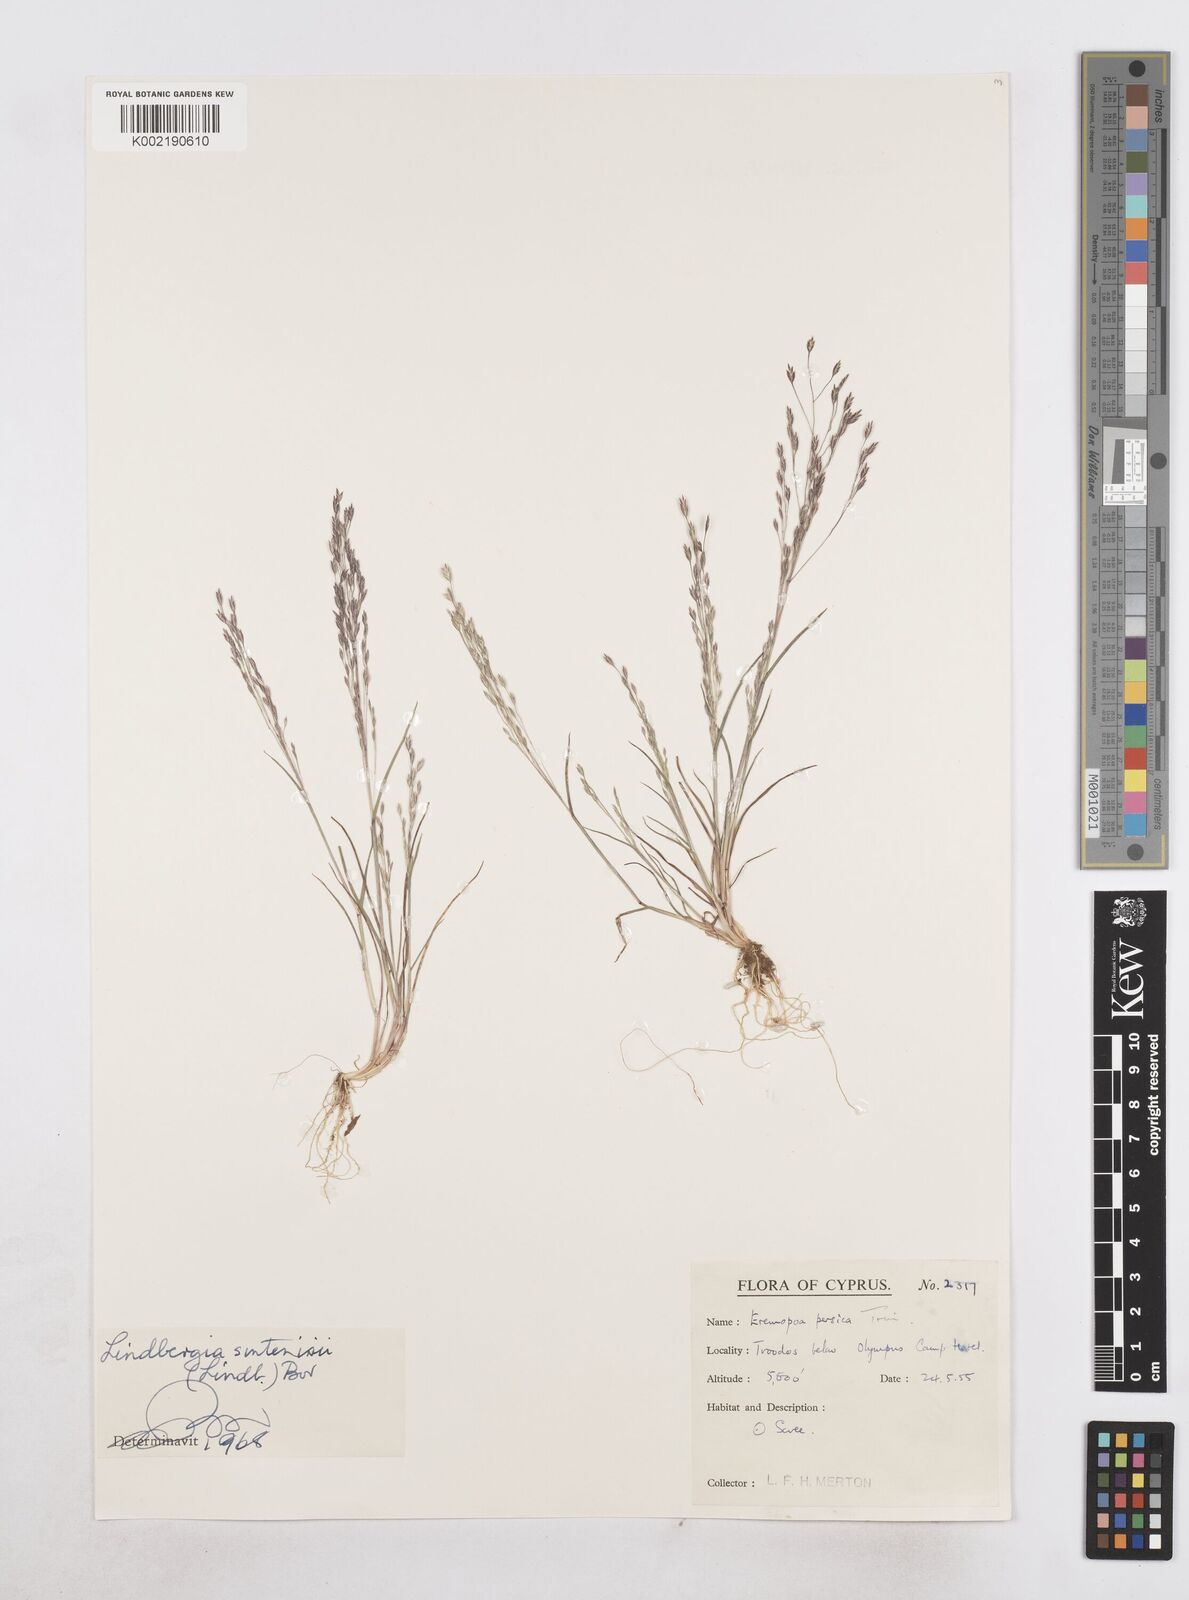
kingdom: Plantae
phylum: Tracheophyta
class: Liliopsida
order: Poales
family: Poaceae
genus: Poa
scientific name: Poa sintenisii
